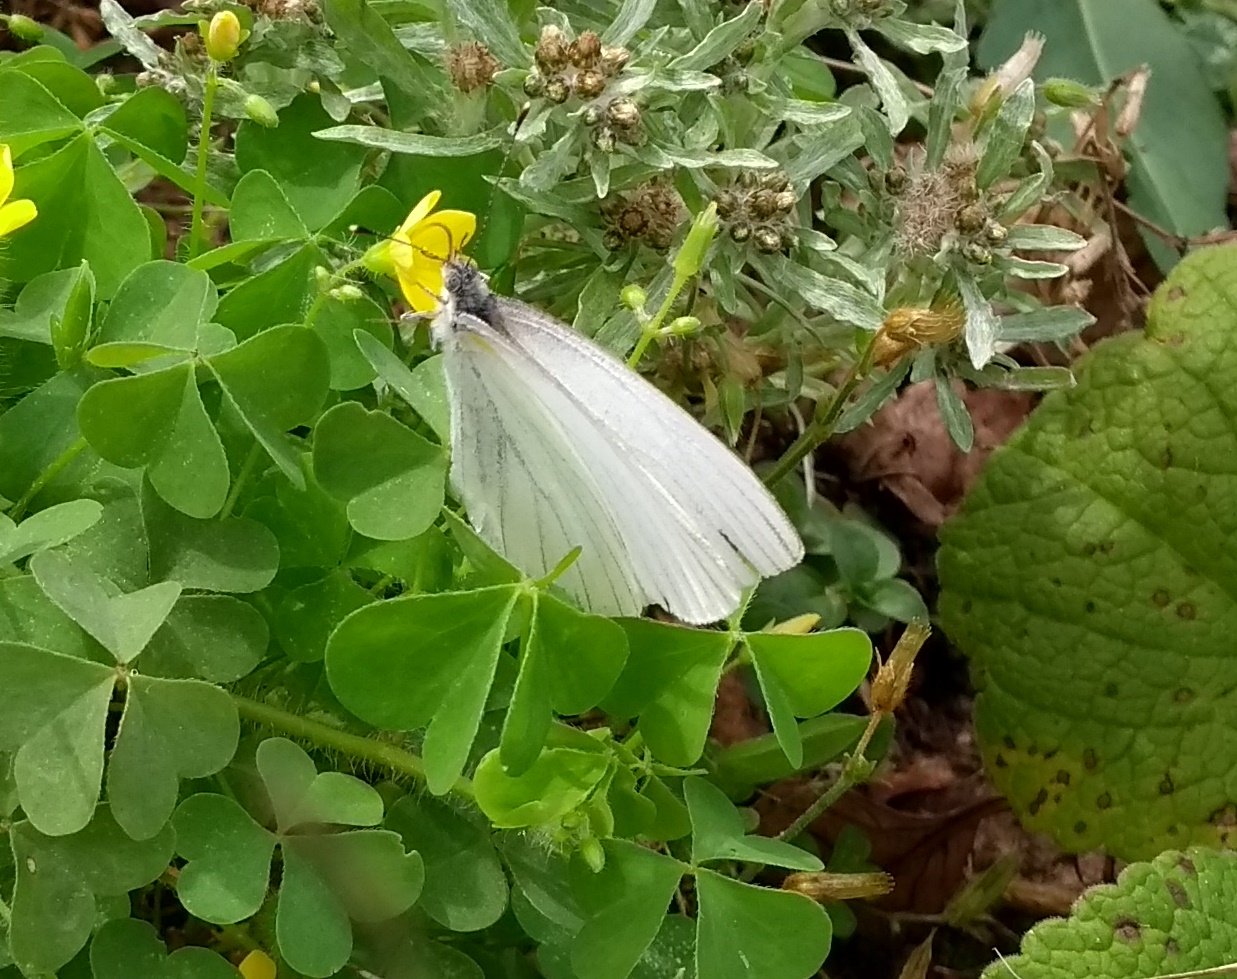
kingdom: Animalia
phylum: Arthropoda
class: Insecta
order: Lepidoptera
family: Pieridae
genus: Pieris
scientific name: Pieris oleracea
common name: Mustard White
